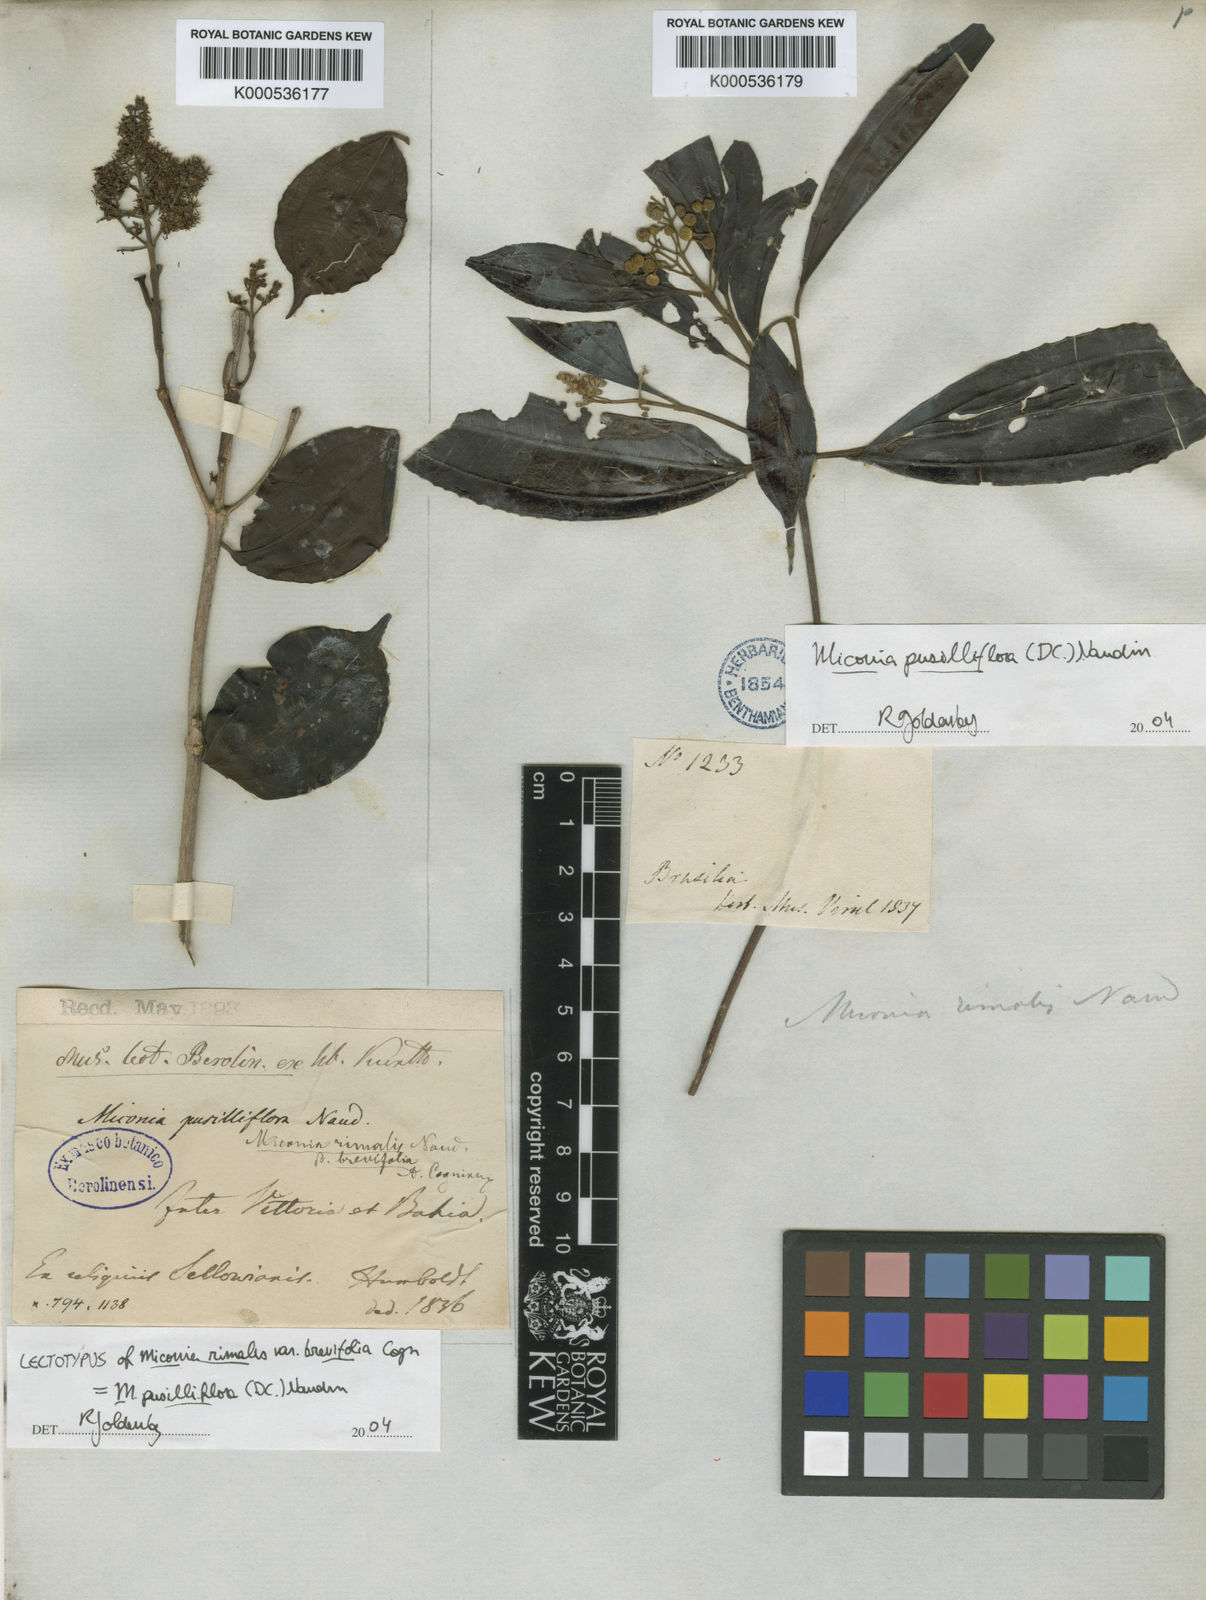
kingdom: Plantae
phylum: Tracheophyta
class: Magnoliopsida
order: Myrtales
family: Melastomataceae
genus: Miconia
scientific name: Miconia rimalis
